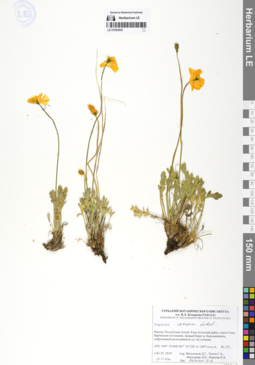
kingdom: Plantae
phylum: Tracheophyta
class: Magnoliopsida
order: Ranunculales
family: Papaveraceae
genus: Papaver
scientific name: Papaver croceum
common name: Siberian poppy
